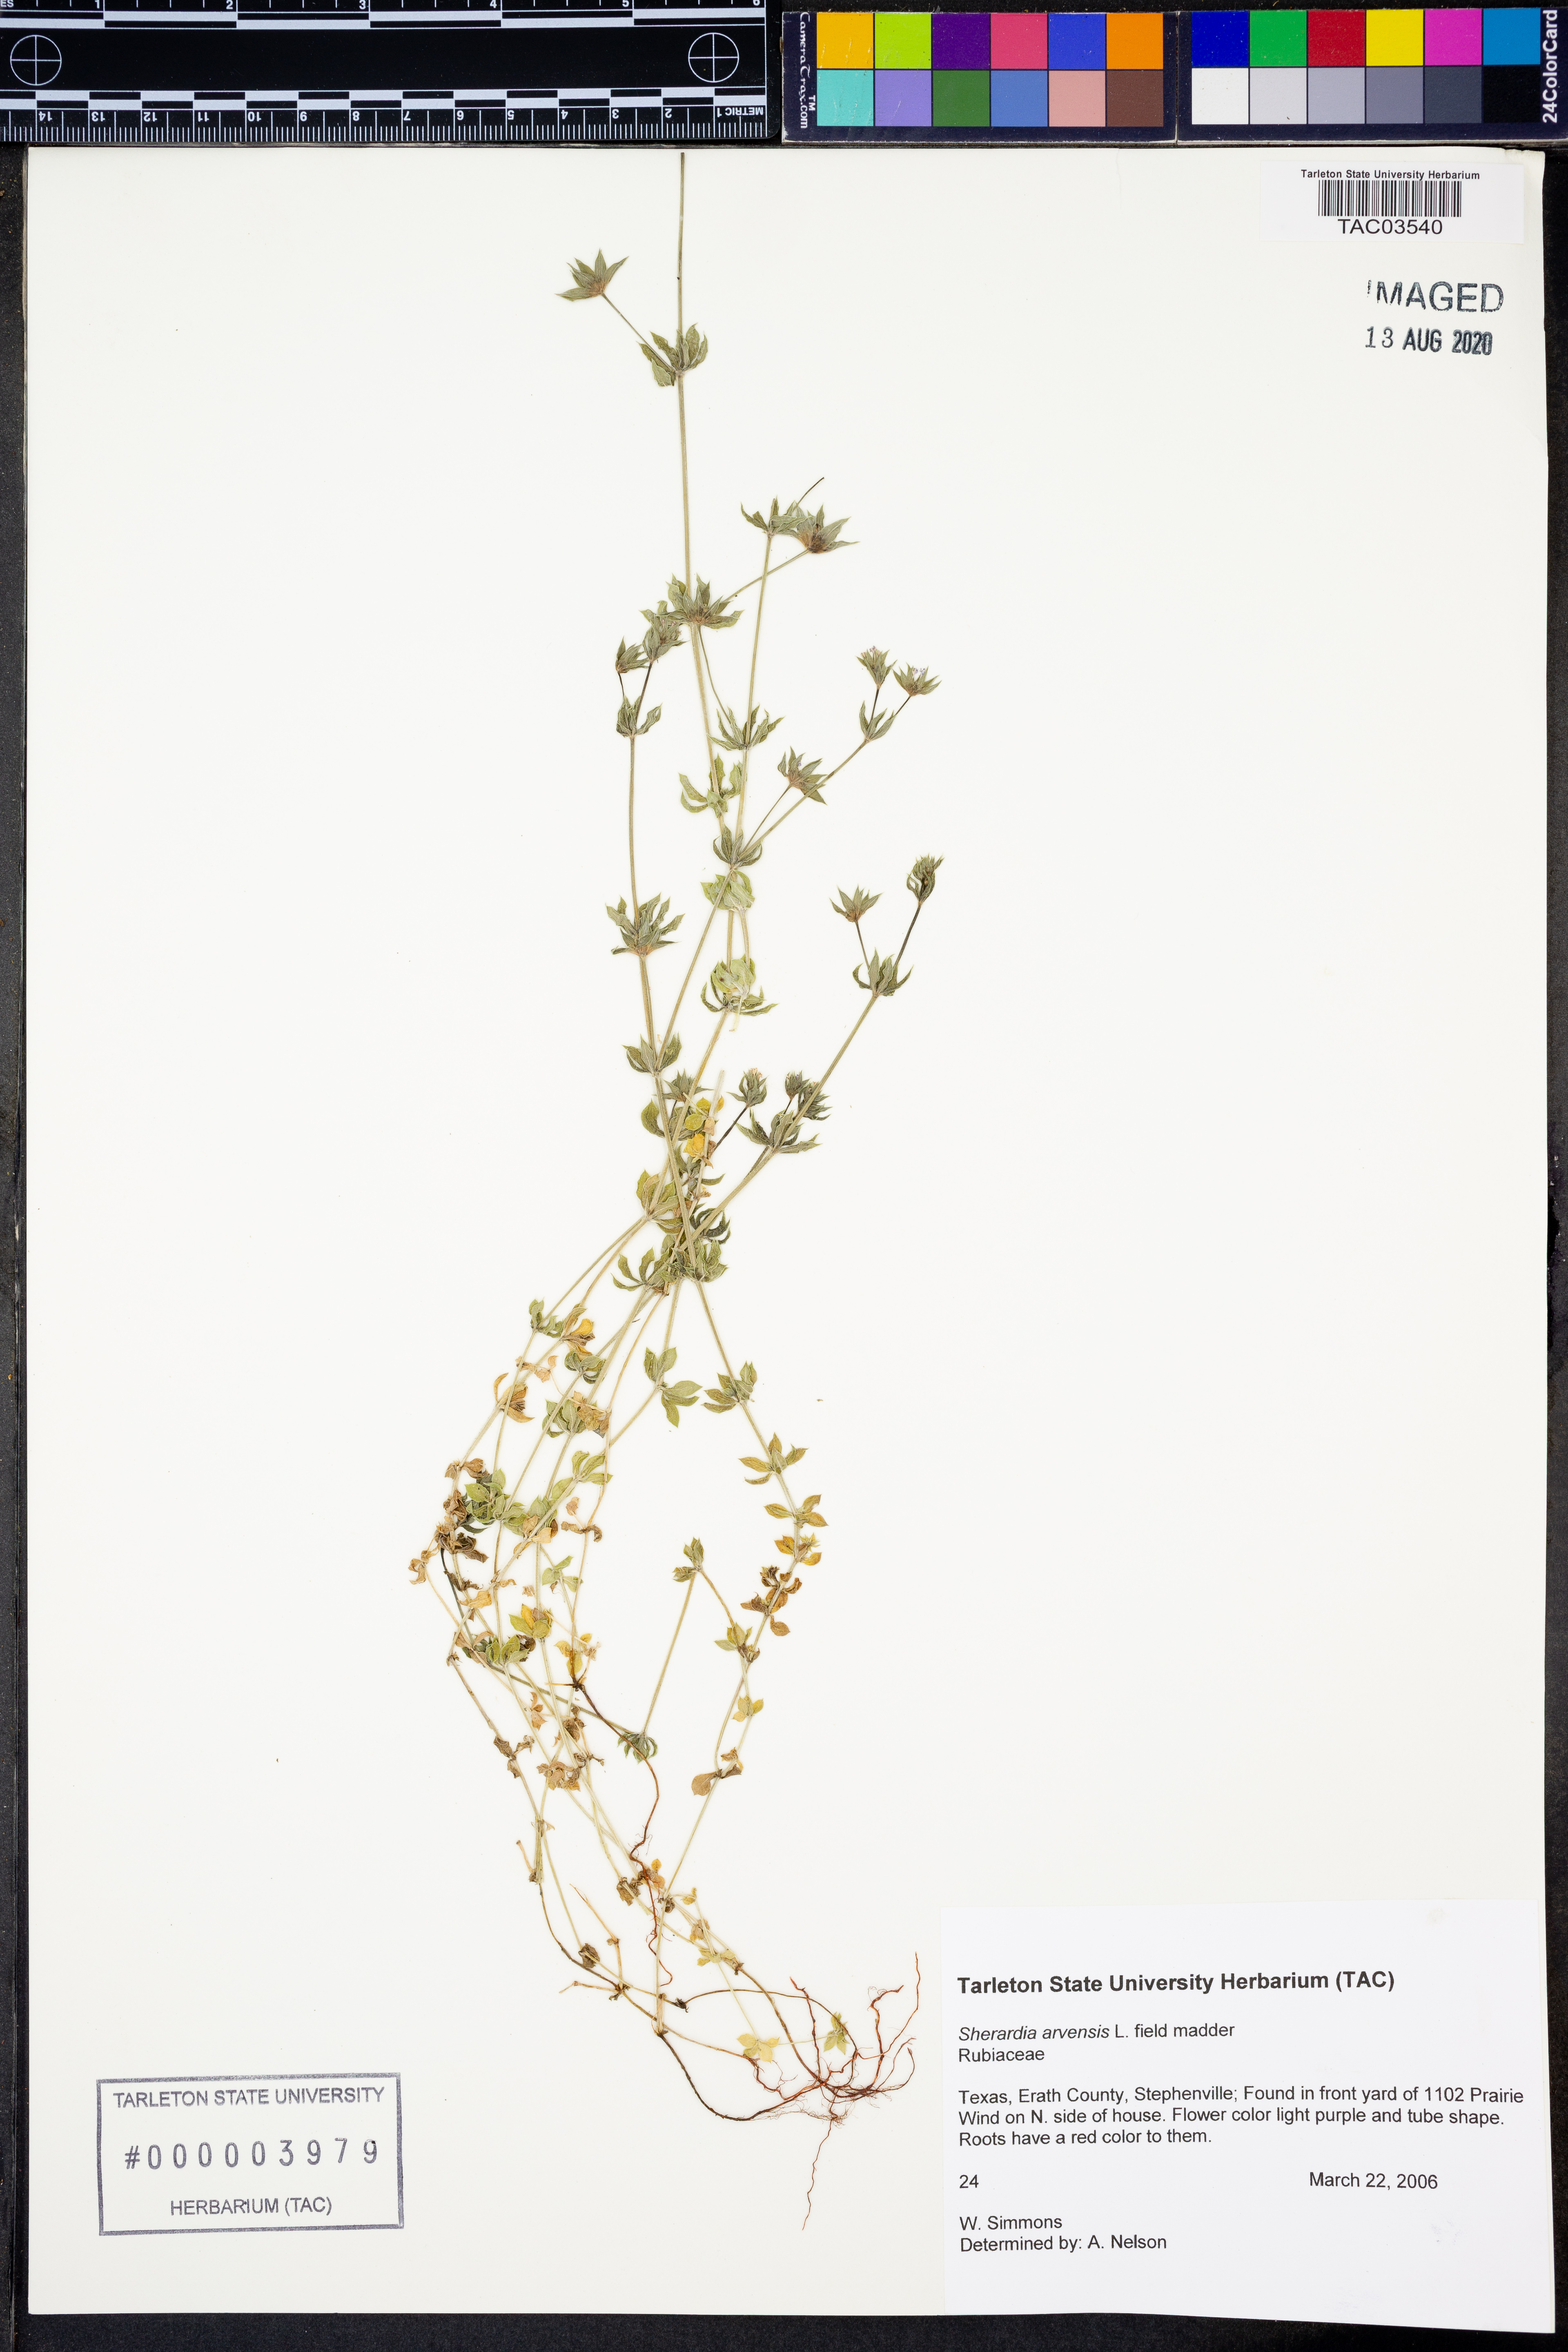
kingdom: Plantae
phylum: Tracheophyta
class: Magnoliopsida
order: Gentianales
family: Rubiaceae
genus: Sherardia
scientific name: Sherardia arvensis
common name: Field madder
